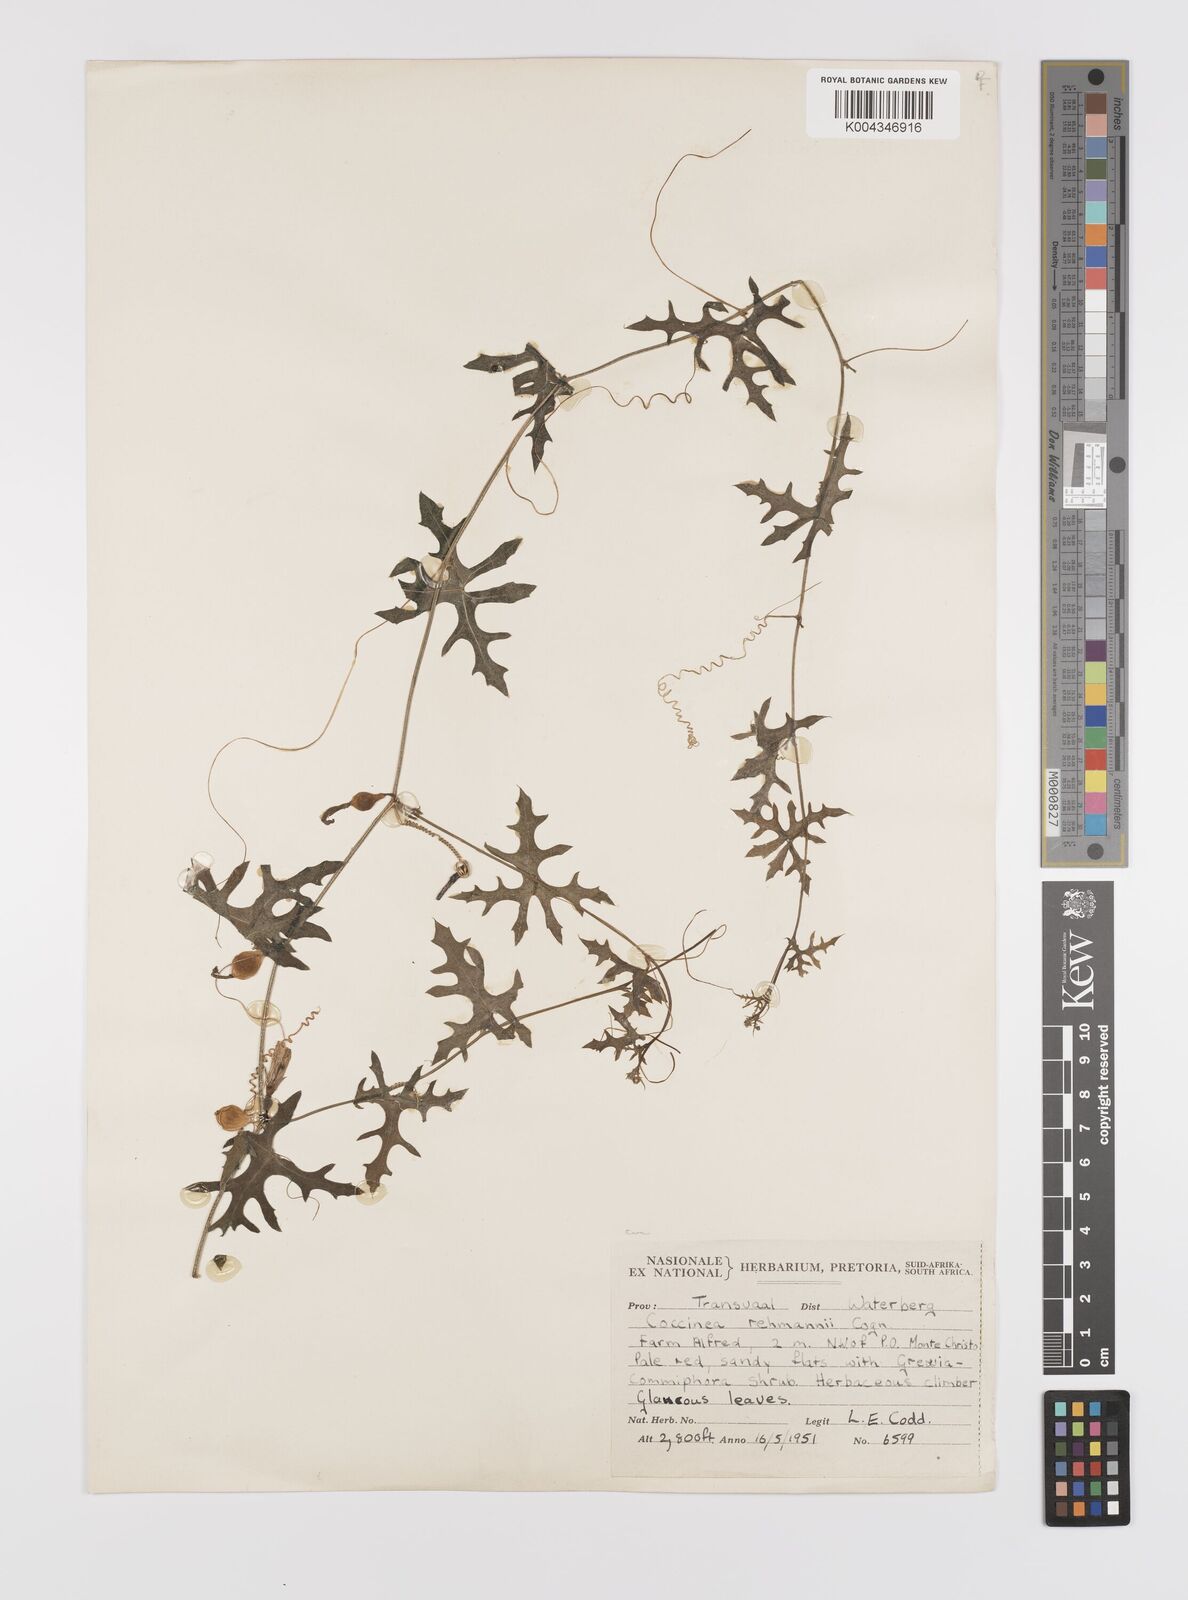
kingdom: Plantae
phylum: Tracheophyta
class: Magnoliopsida
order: Cucurbitales
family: Cucurbitaceae
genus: Coccinia
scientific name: Coccinia rehmannii
